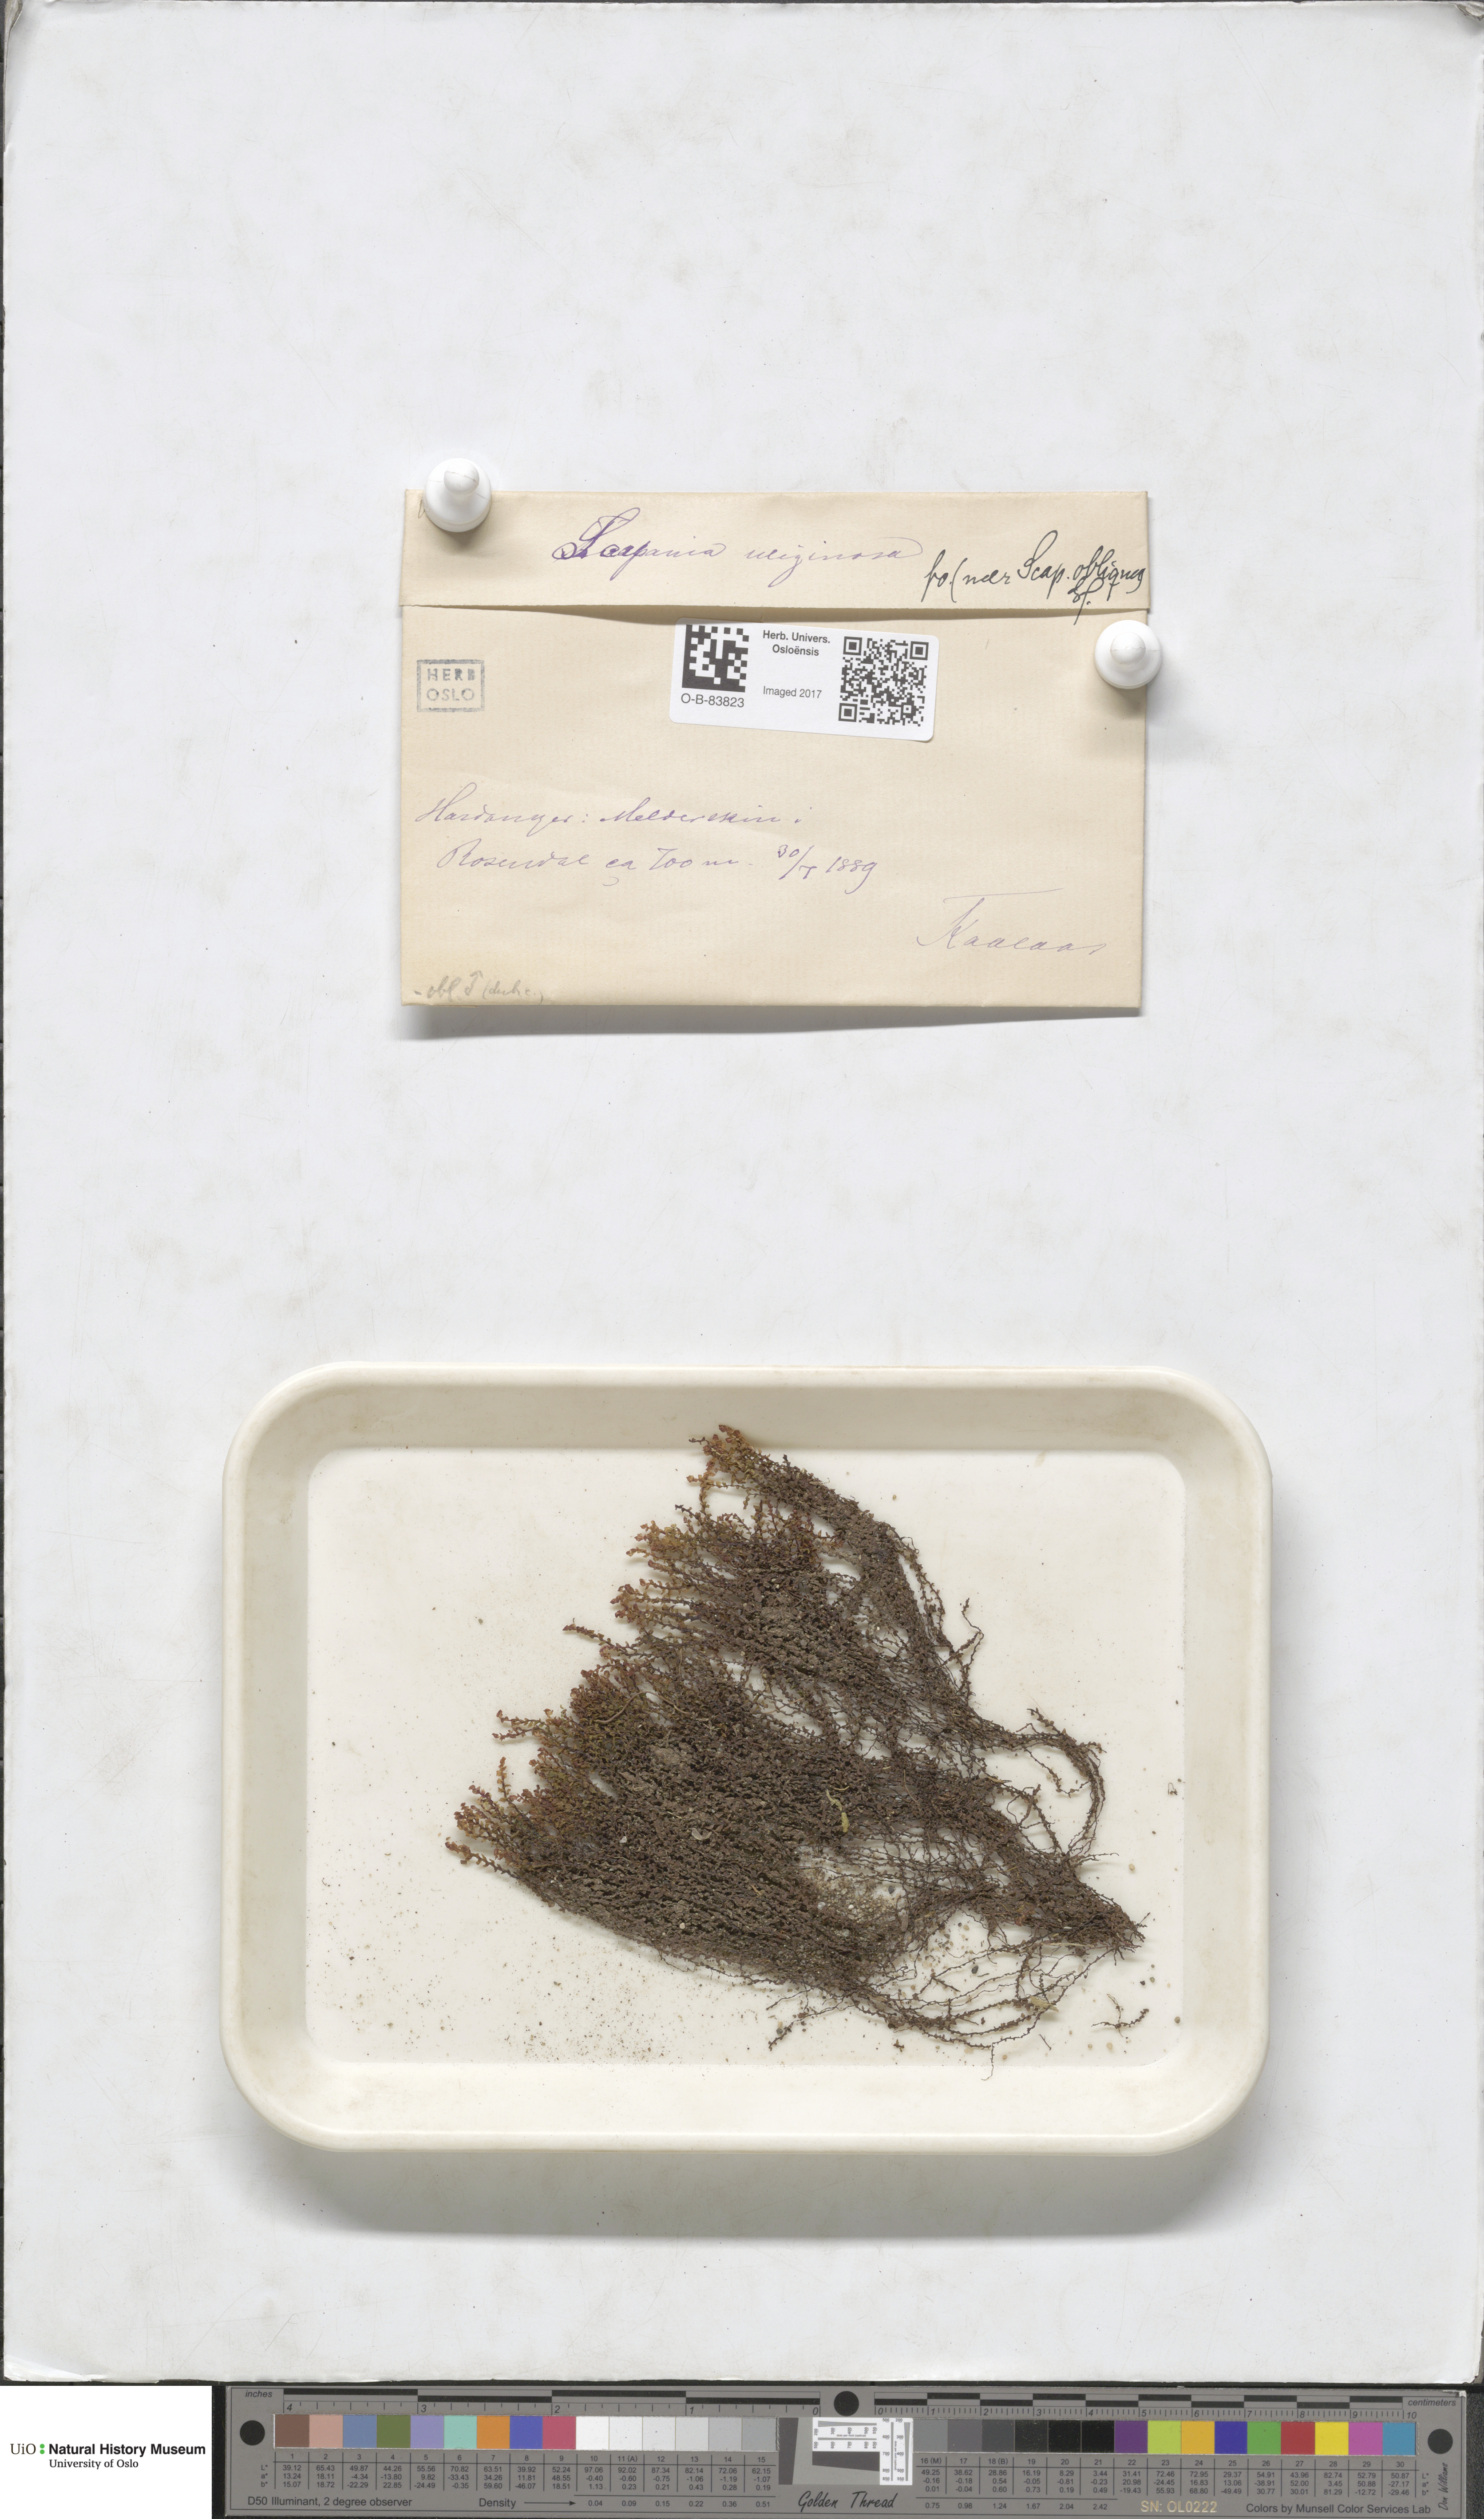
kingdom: Plantae
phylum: Marchantiophyta
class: Jungermanniopsida
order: Jungermanniales
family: Scapaniaceae
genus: Scapania
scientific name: Scapania uliginosa
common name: Marsh earwort
